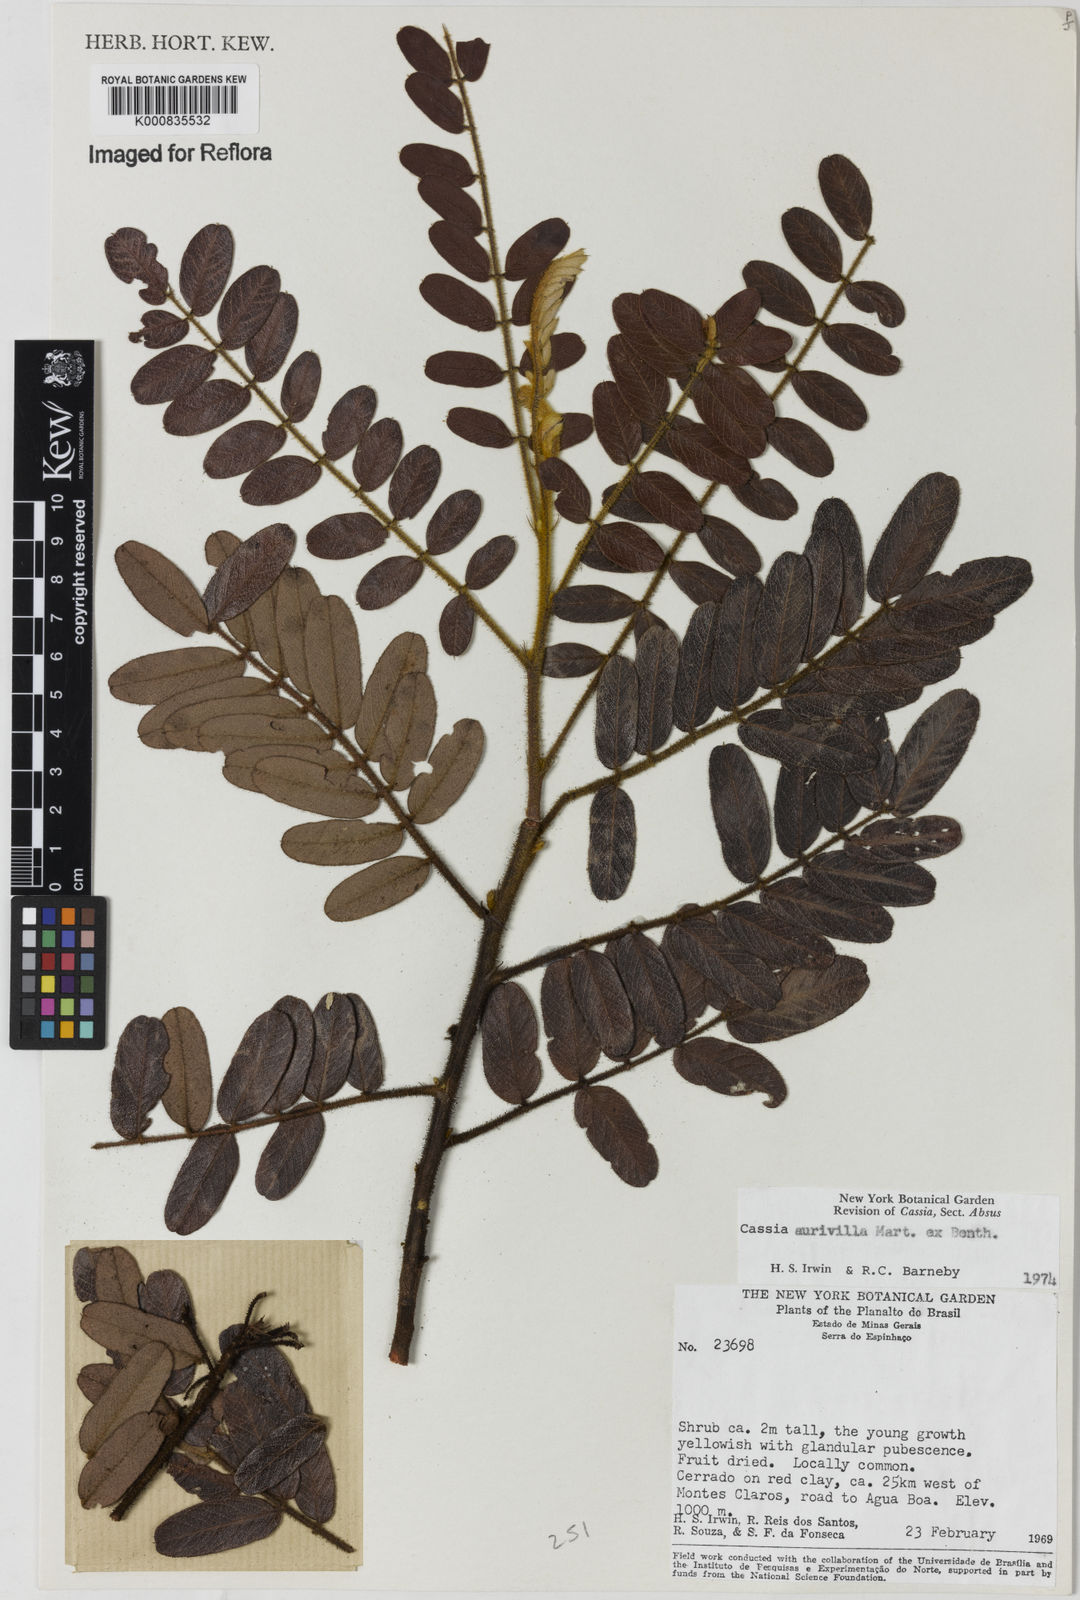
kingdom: Plantae
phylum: Tracheophyta
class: Magnoliopsida
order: Fabales
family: Fabaceae
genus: Chamaecrista
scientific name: Chamaecrista aurivilla
